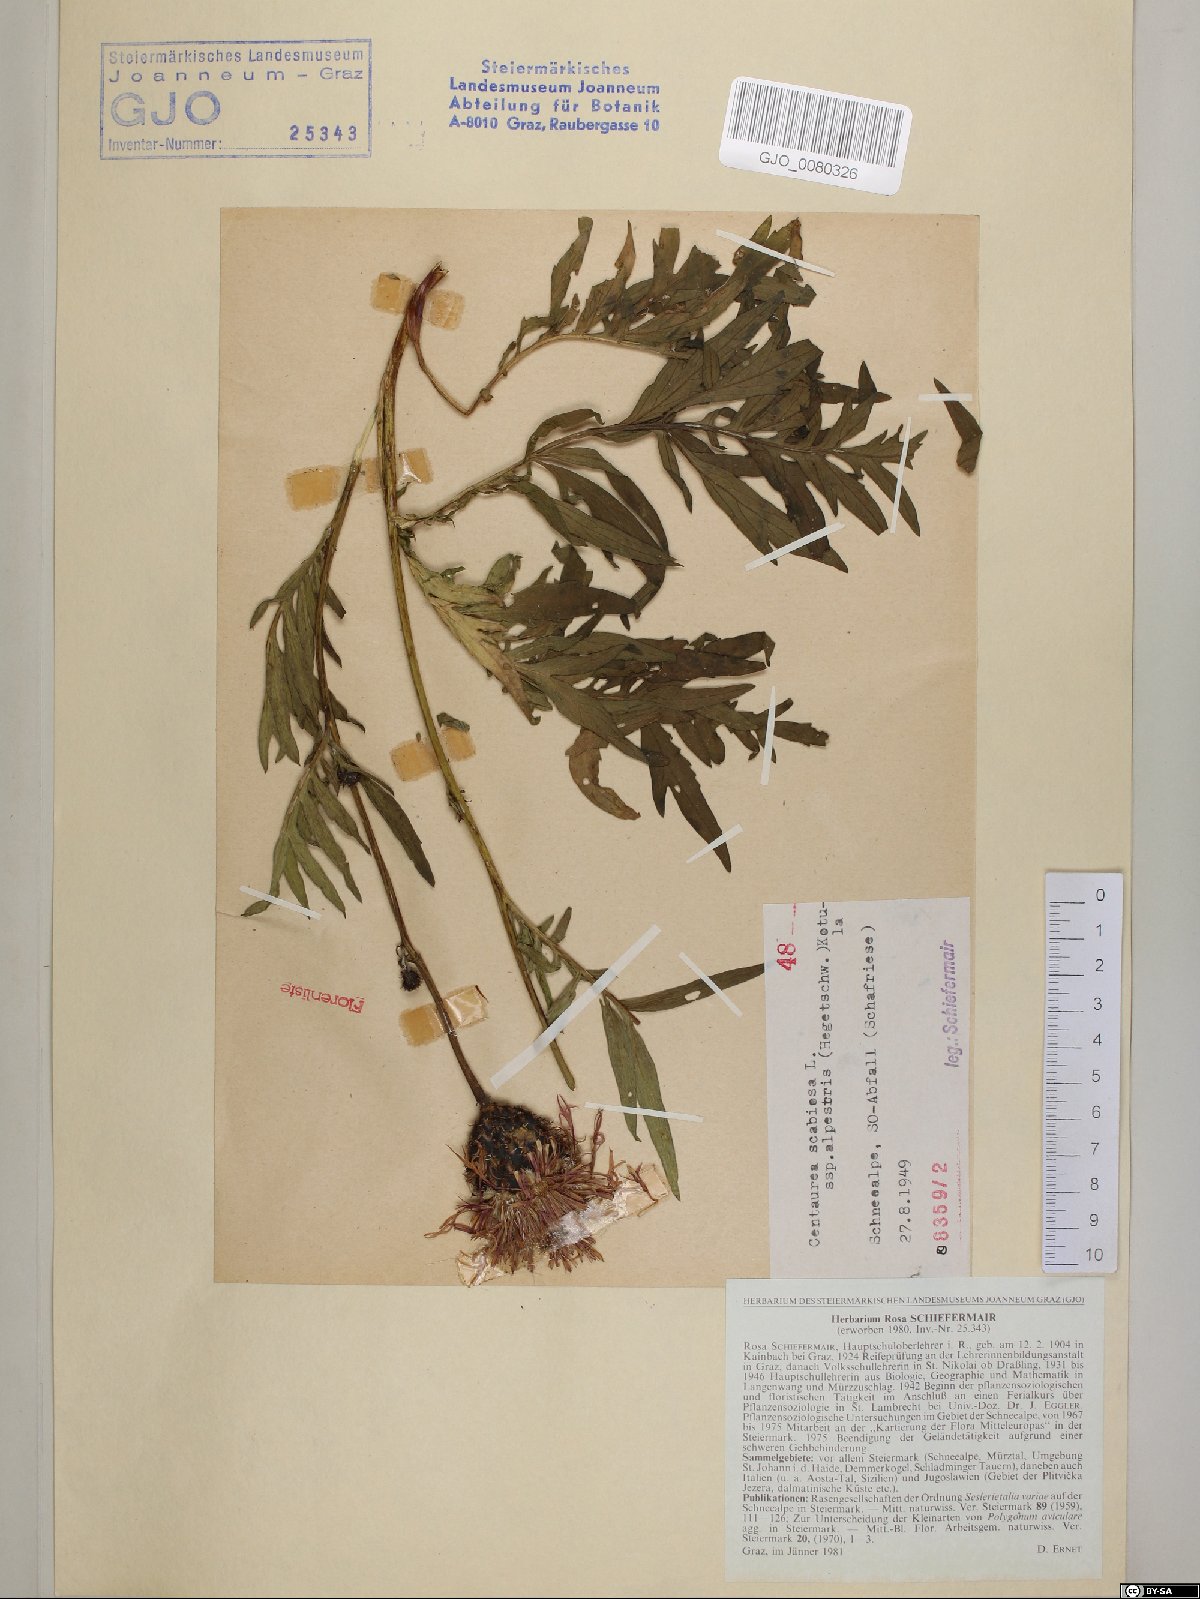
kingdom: Plantae
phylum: Tracheophyta
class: Magnoliopsida
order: Asterales
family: Asteraceae
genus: Centaurea
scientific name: Centaurea scabiosa
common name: Greater knapweed
